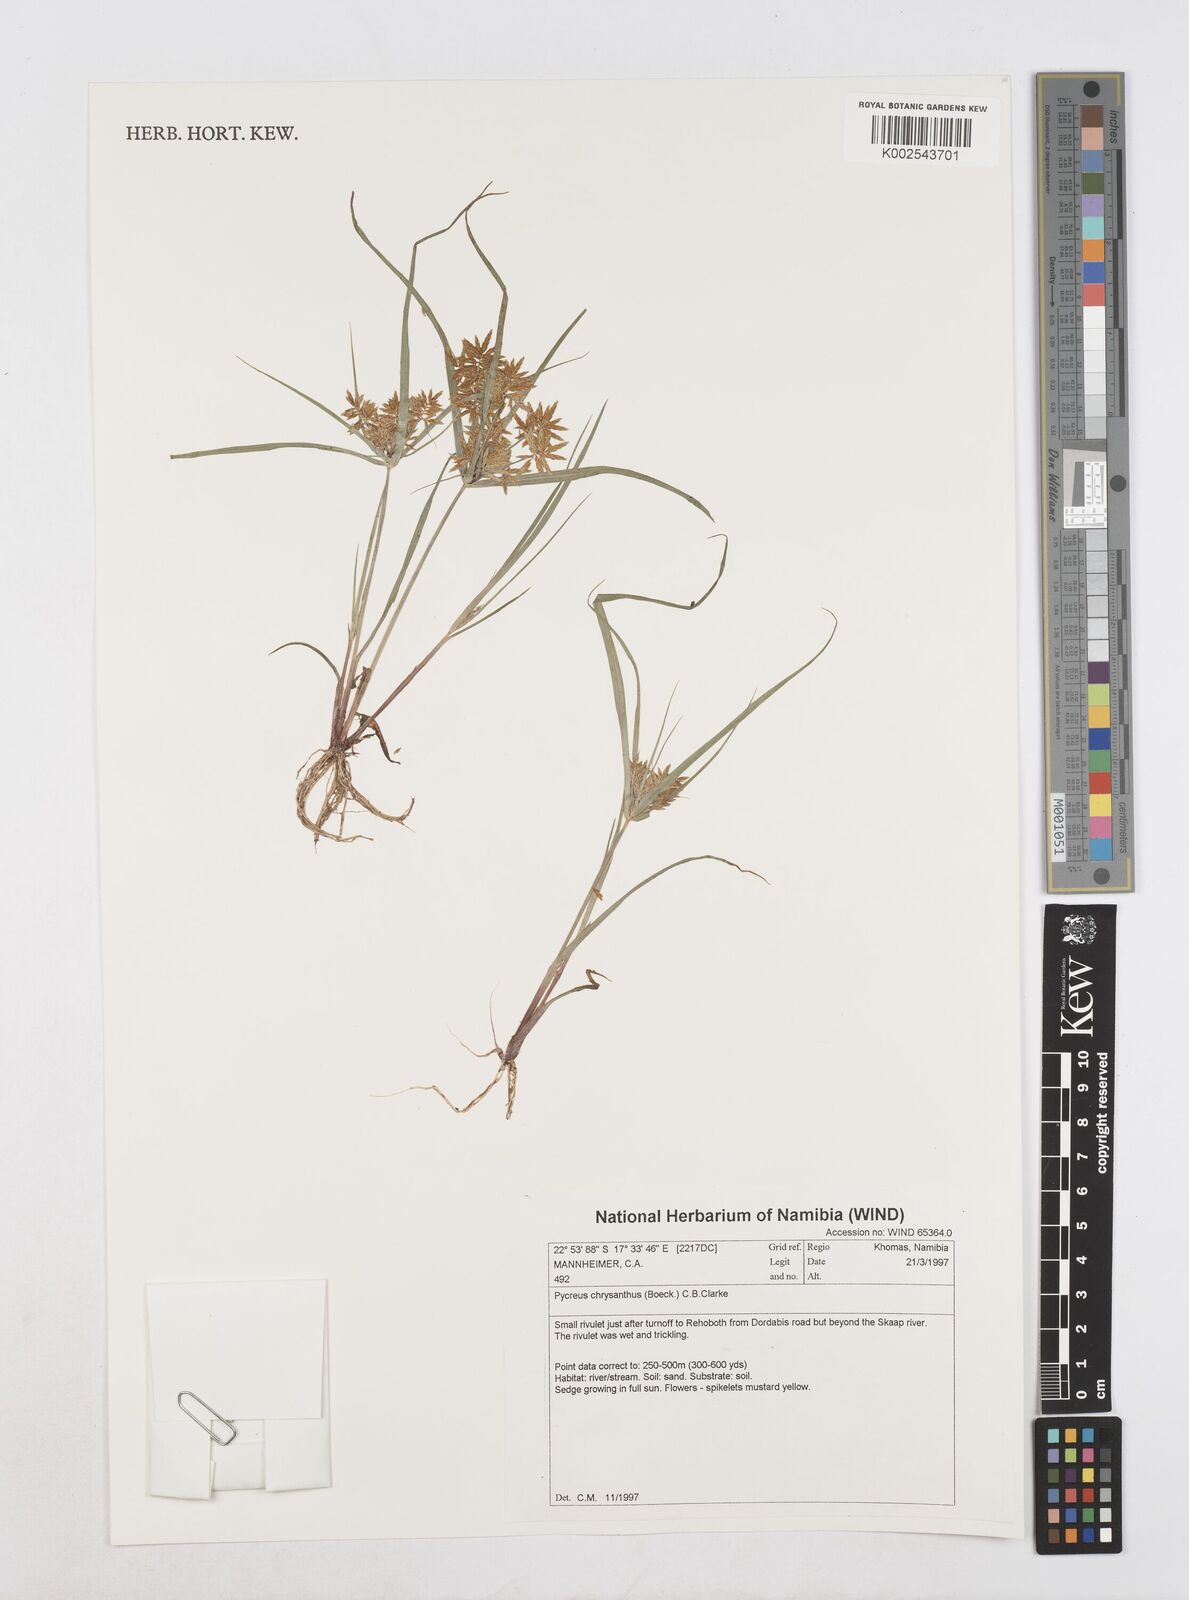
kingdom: Plantae
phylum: Tracheophyta
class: Liliopsida
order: Poales
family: Cyperaceae
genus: Cyperus
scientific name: Cyperus chrysanthus
